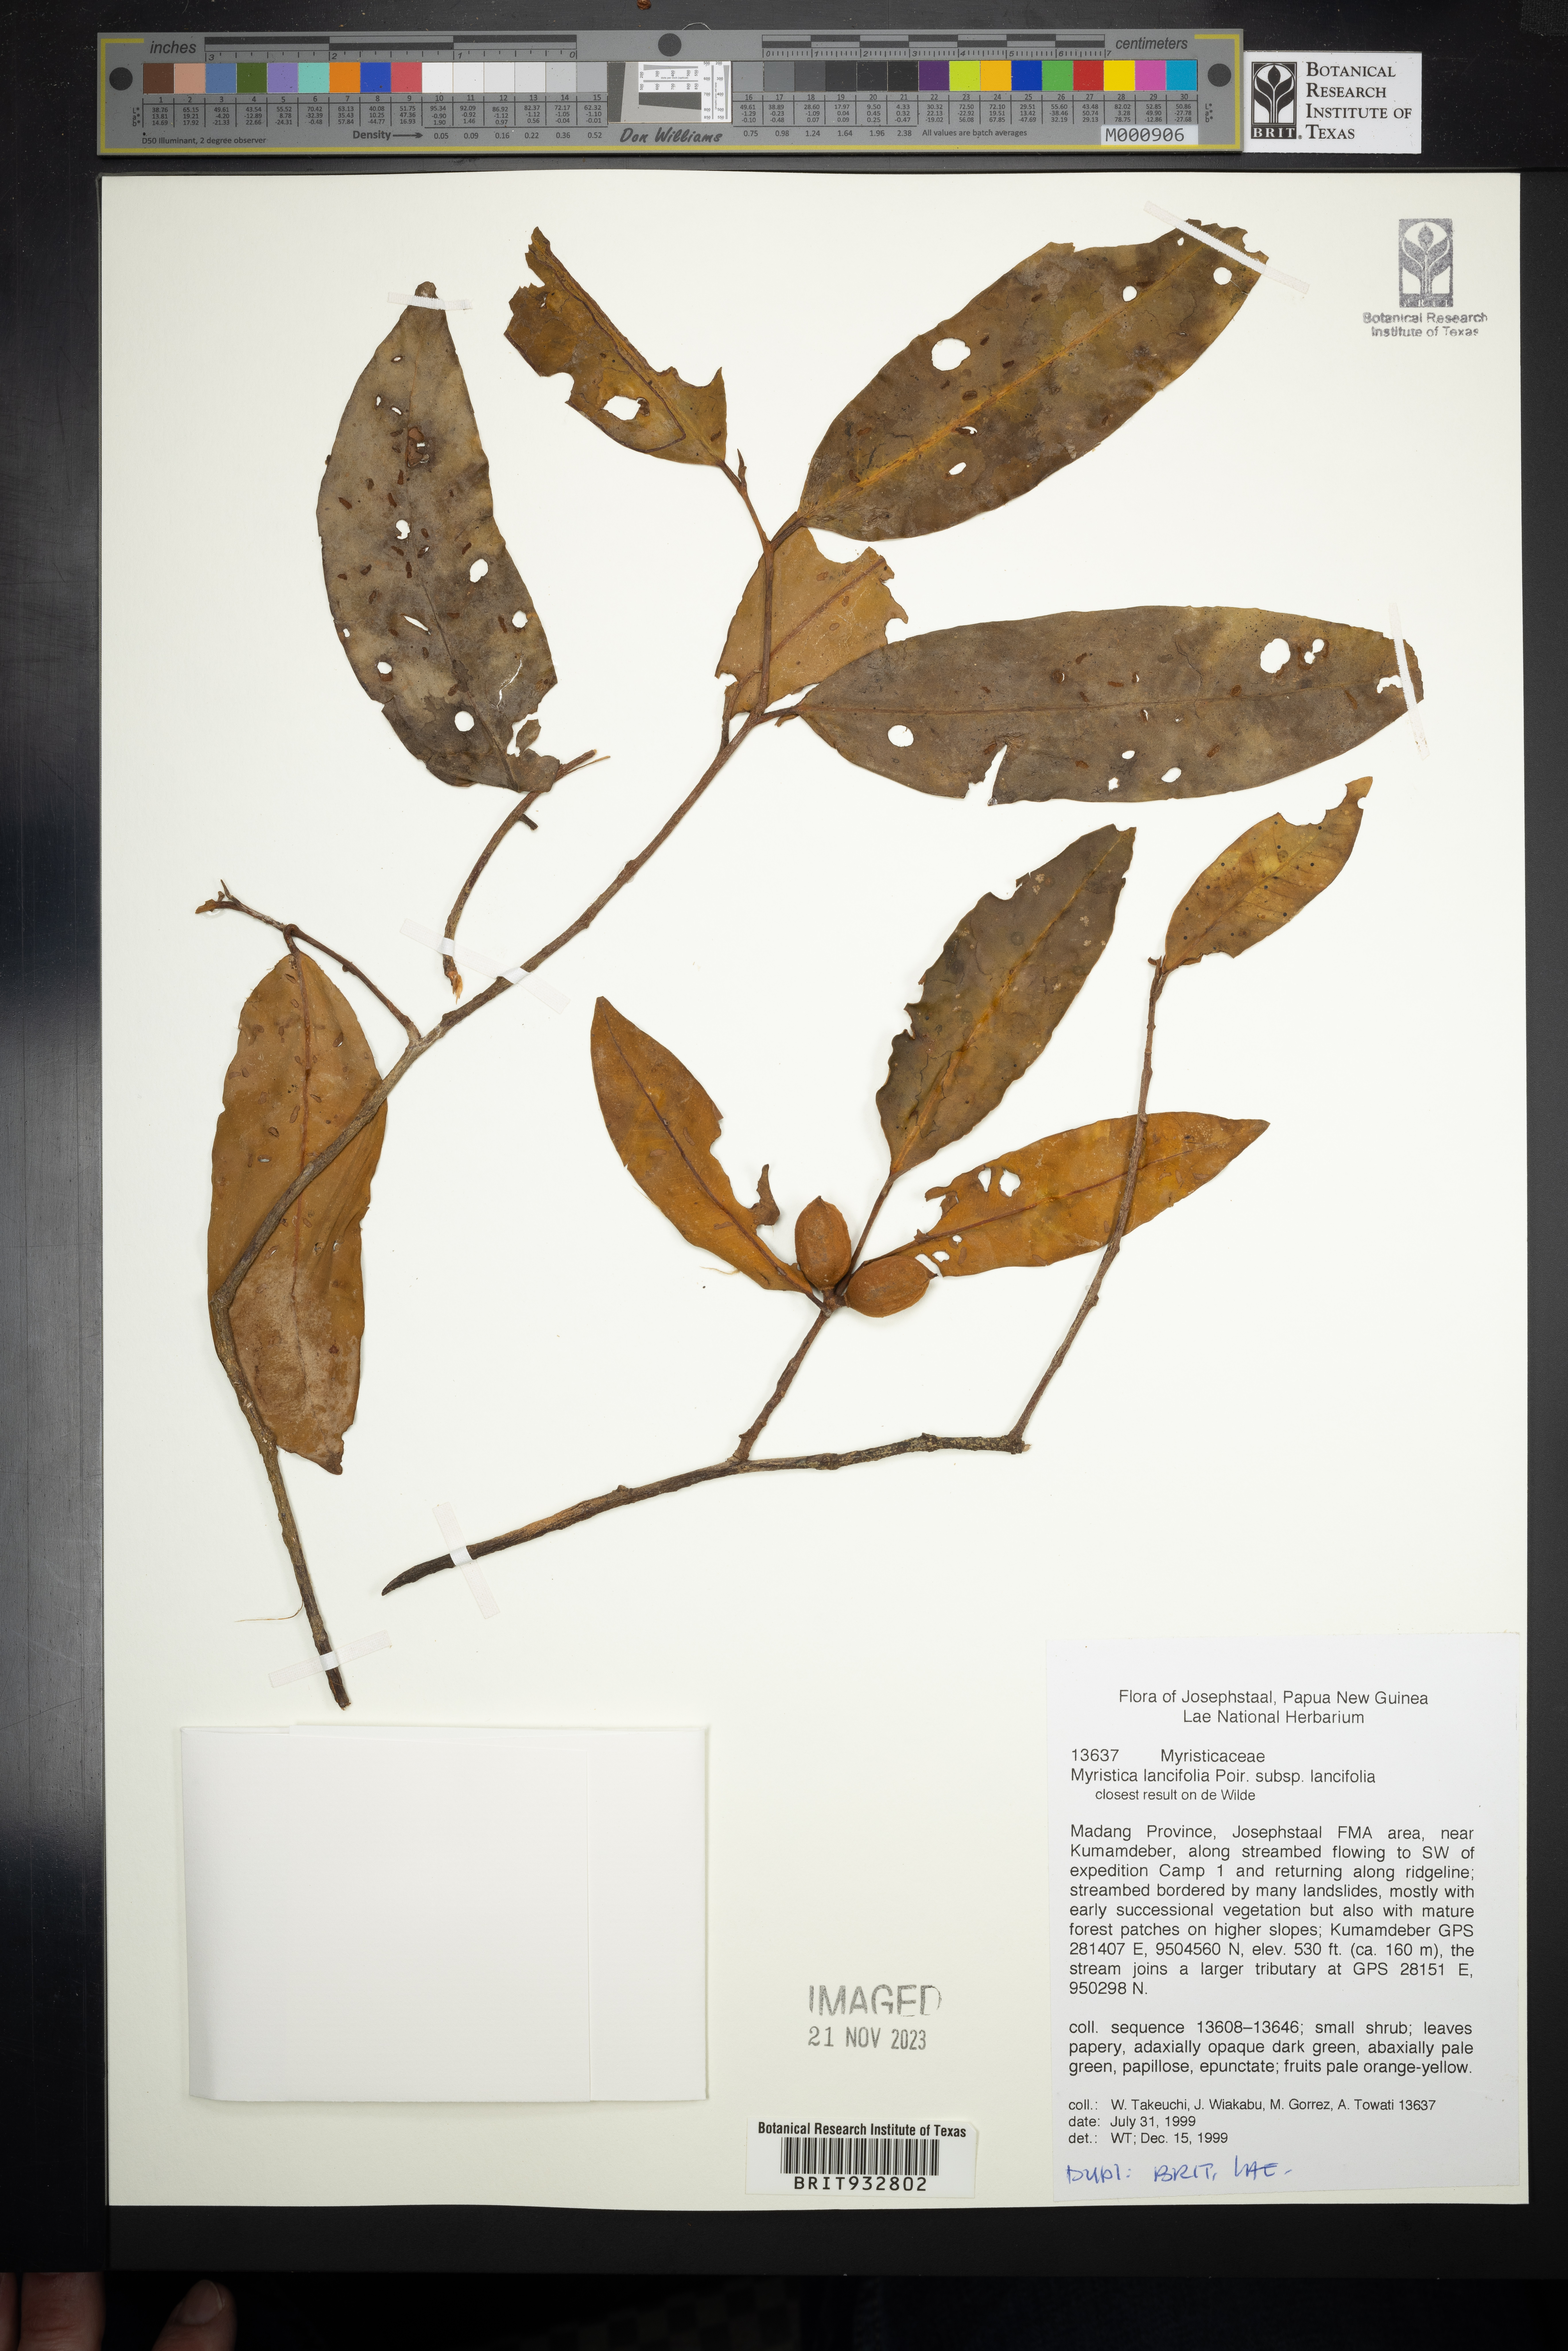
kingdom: Plantae
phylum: Tracheophyta
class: Magnoliopsida
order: Magnoliales
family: Myristicaceae
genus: Myristica
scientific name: Myristica
